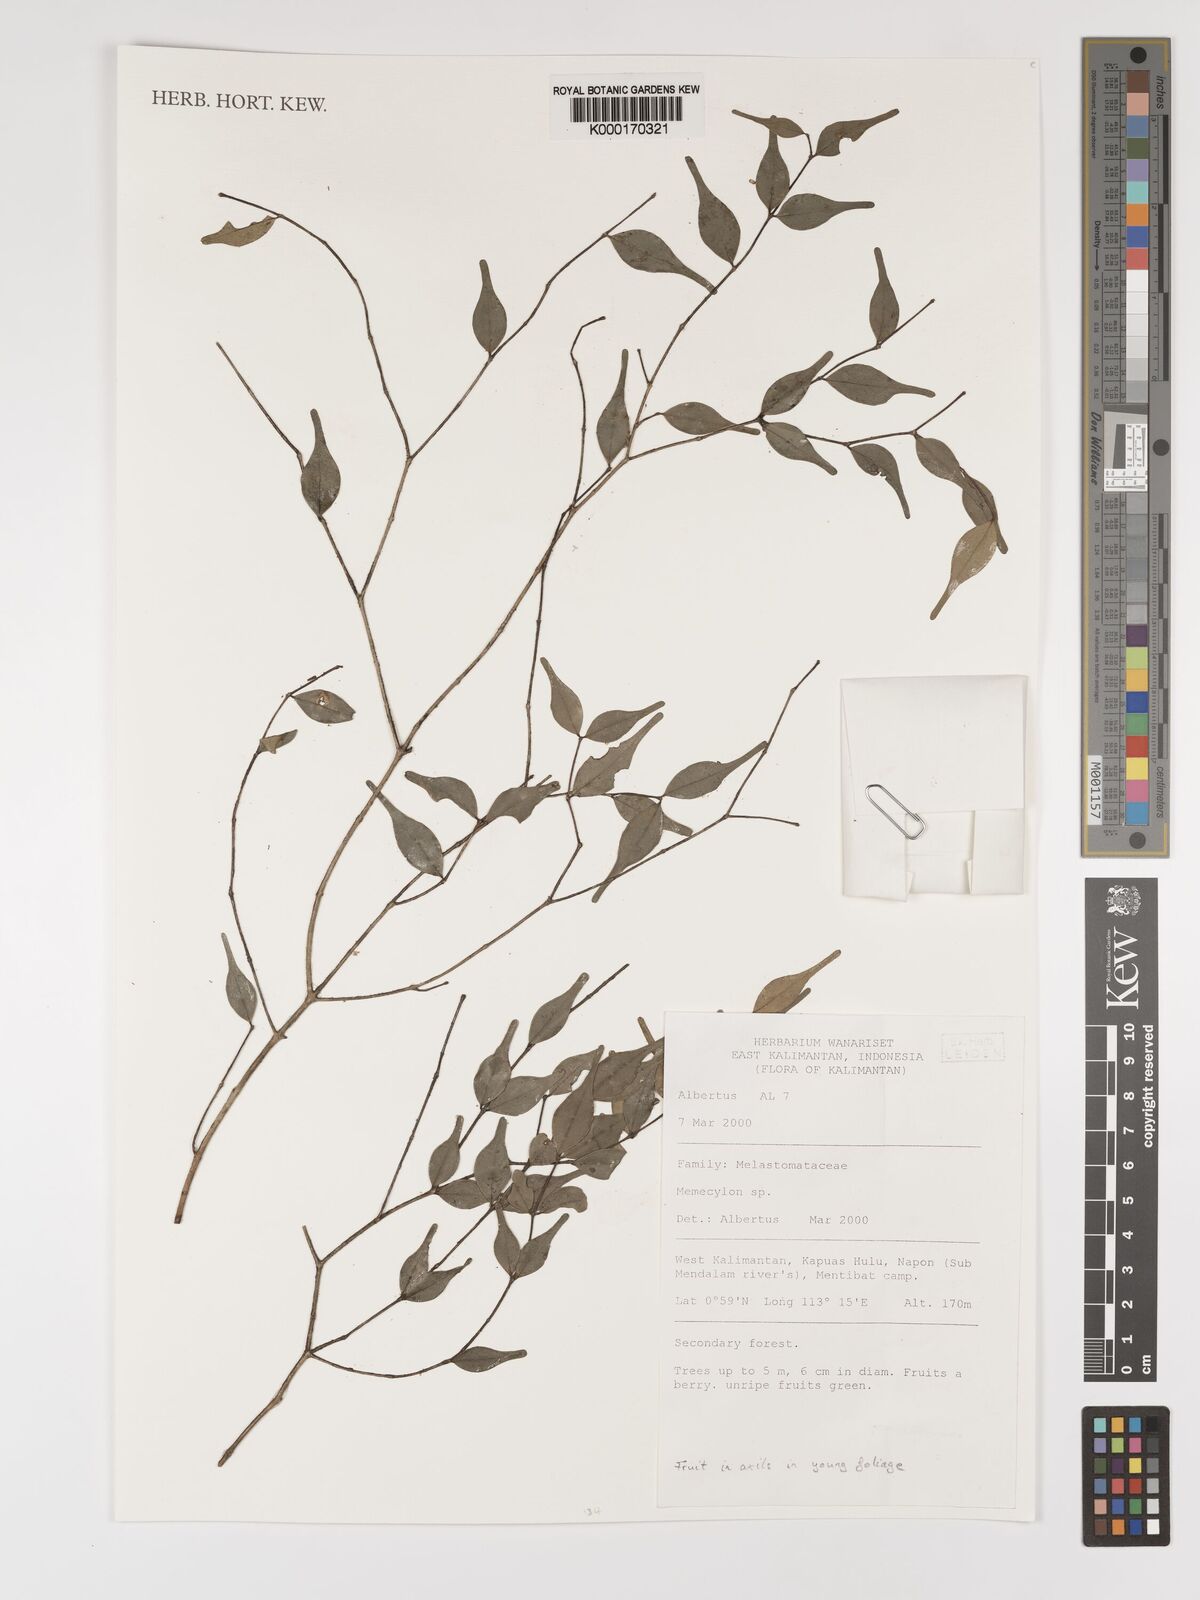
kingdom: Plantae
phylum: Tracheophyta
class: Magnoliopsida
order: Myrtales
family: Melastomataceae
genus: Memecylon
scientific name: Memecylon
